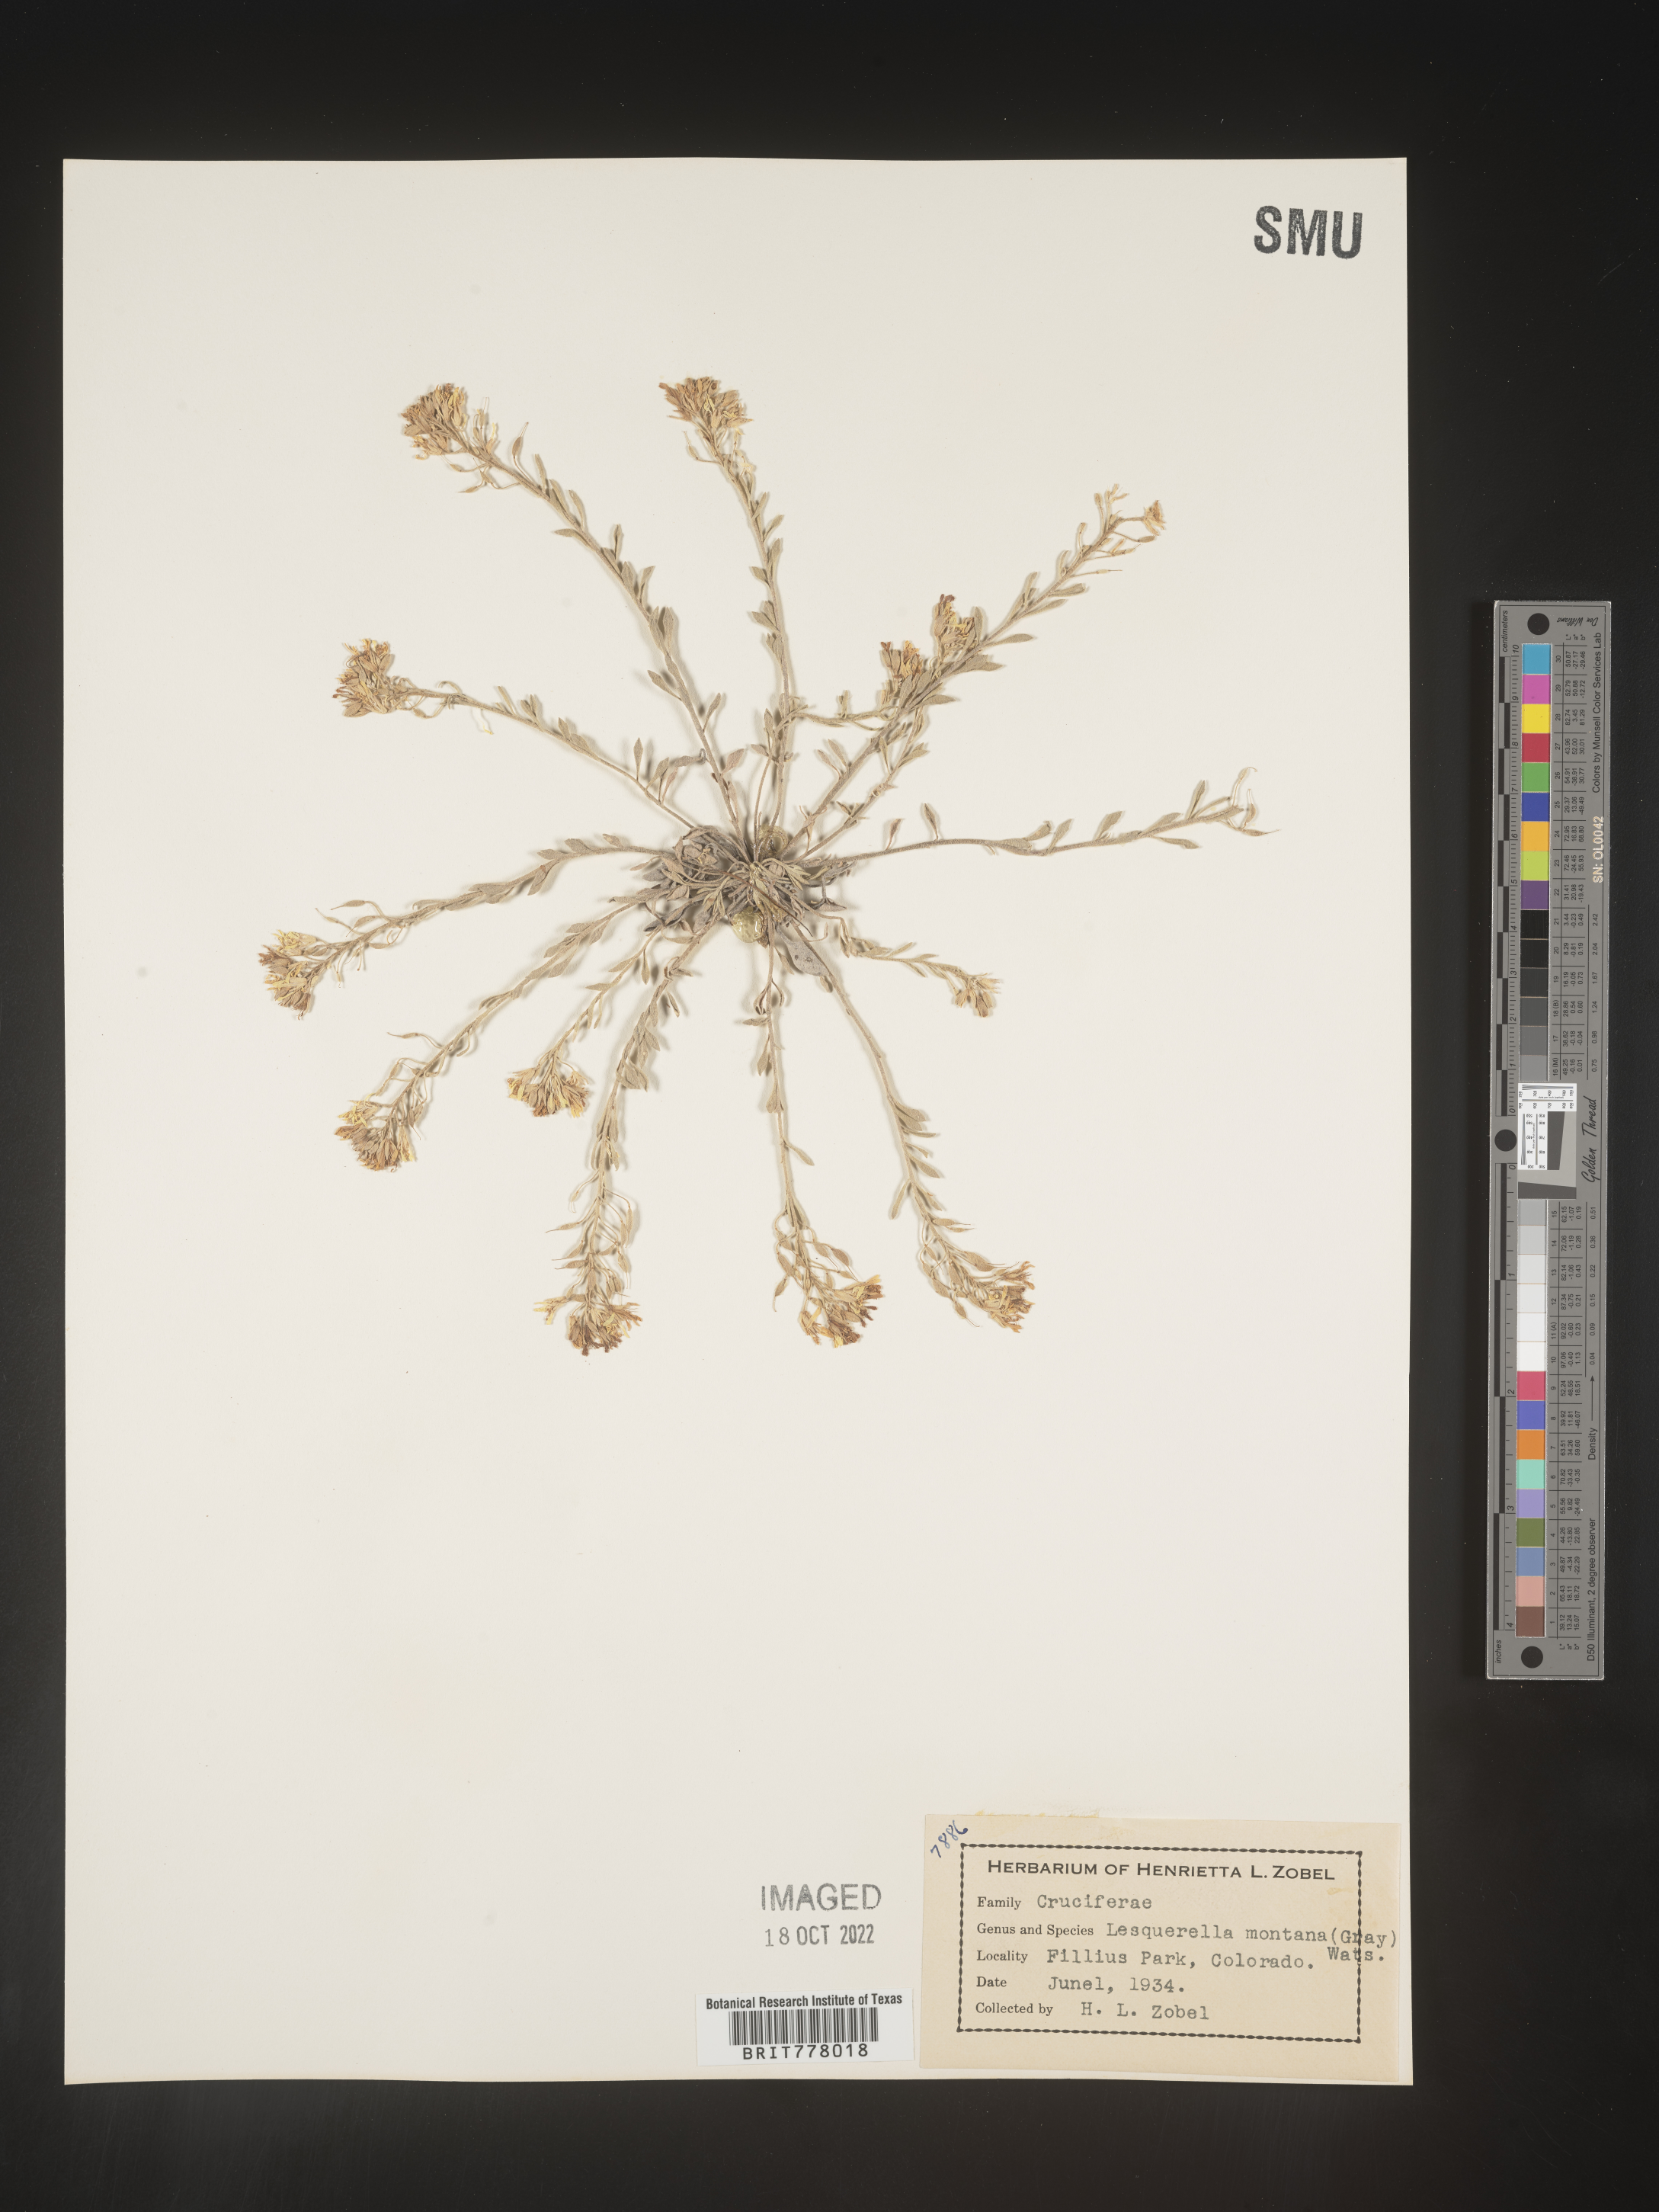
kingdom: Chromista
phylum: Cercozoa
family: Psammonobiotidae
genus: Lesquerella
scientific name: Lesquerella
